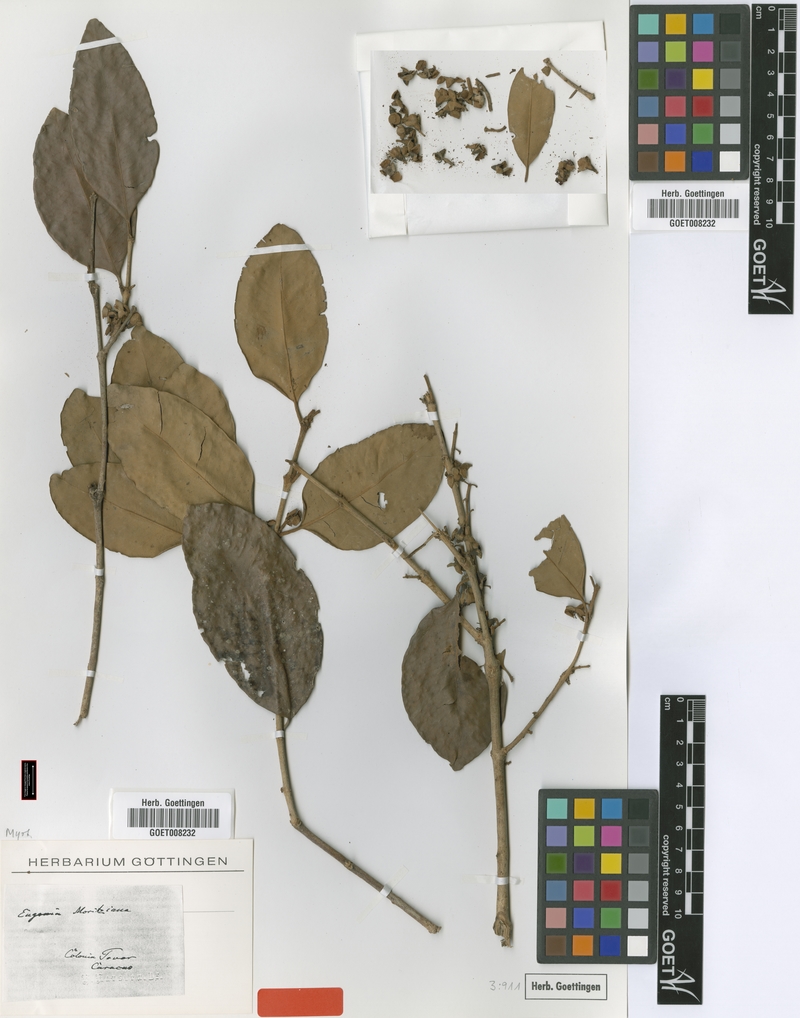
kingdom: Plantae
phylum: Tracheophyta
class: Magnoliopsida
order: Myrtales
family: Myrtaceae
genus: Eugenia
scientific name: Eugenia moritziana
